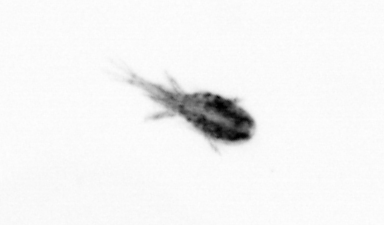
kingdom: Animalia
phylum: Arthropoda
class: Copepoda
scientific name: Copepoda
